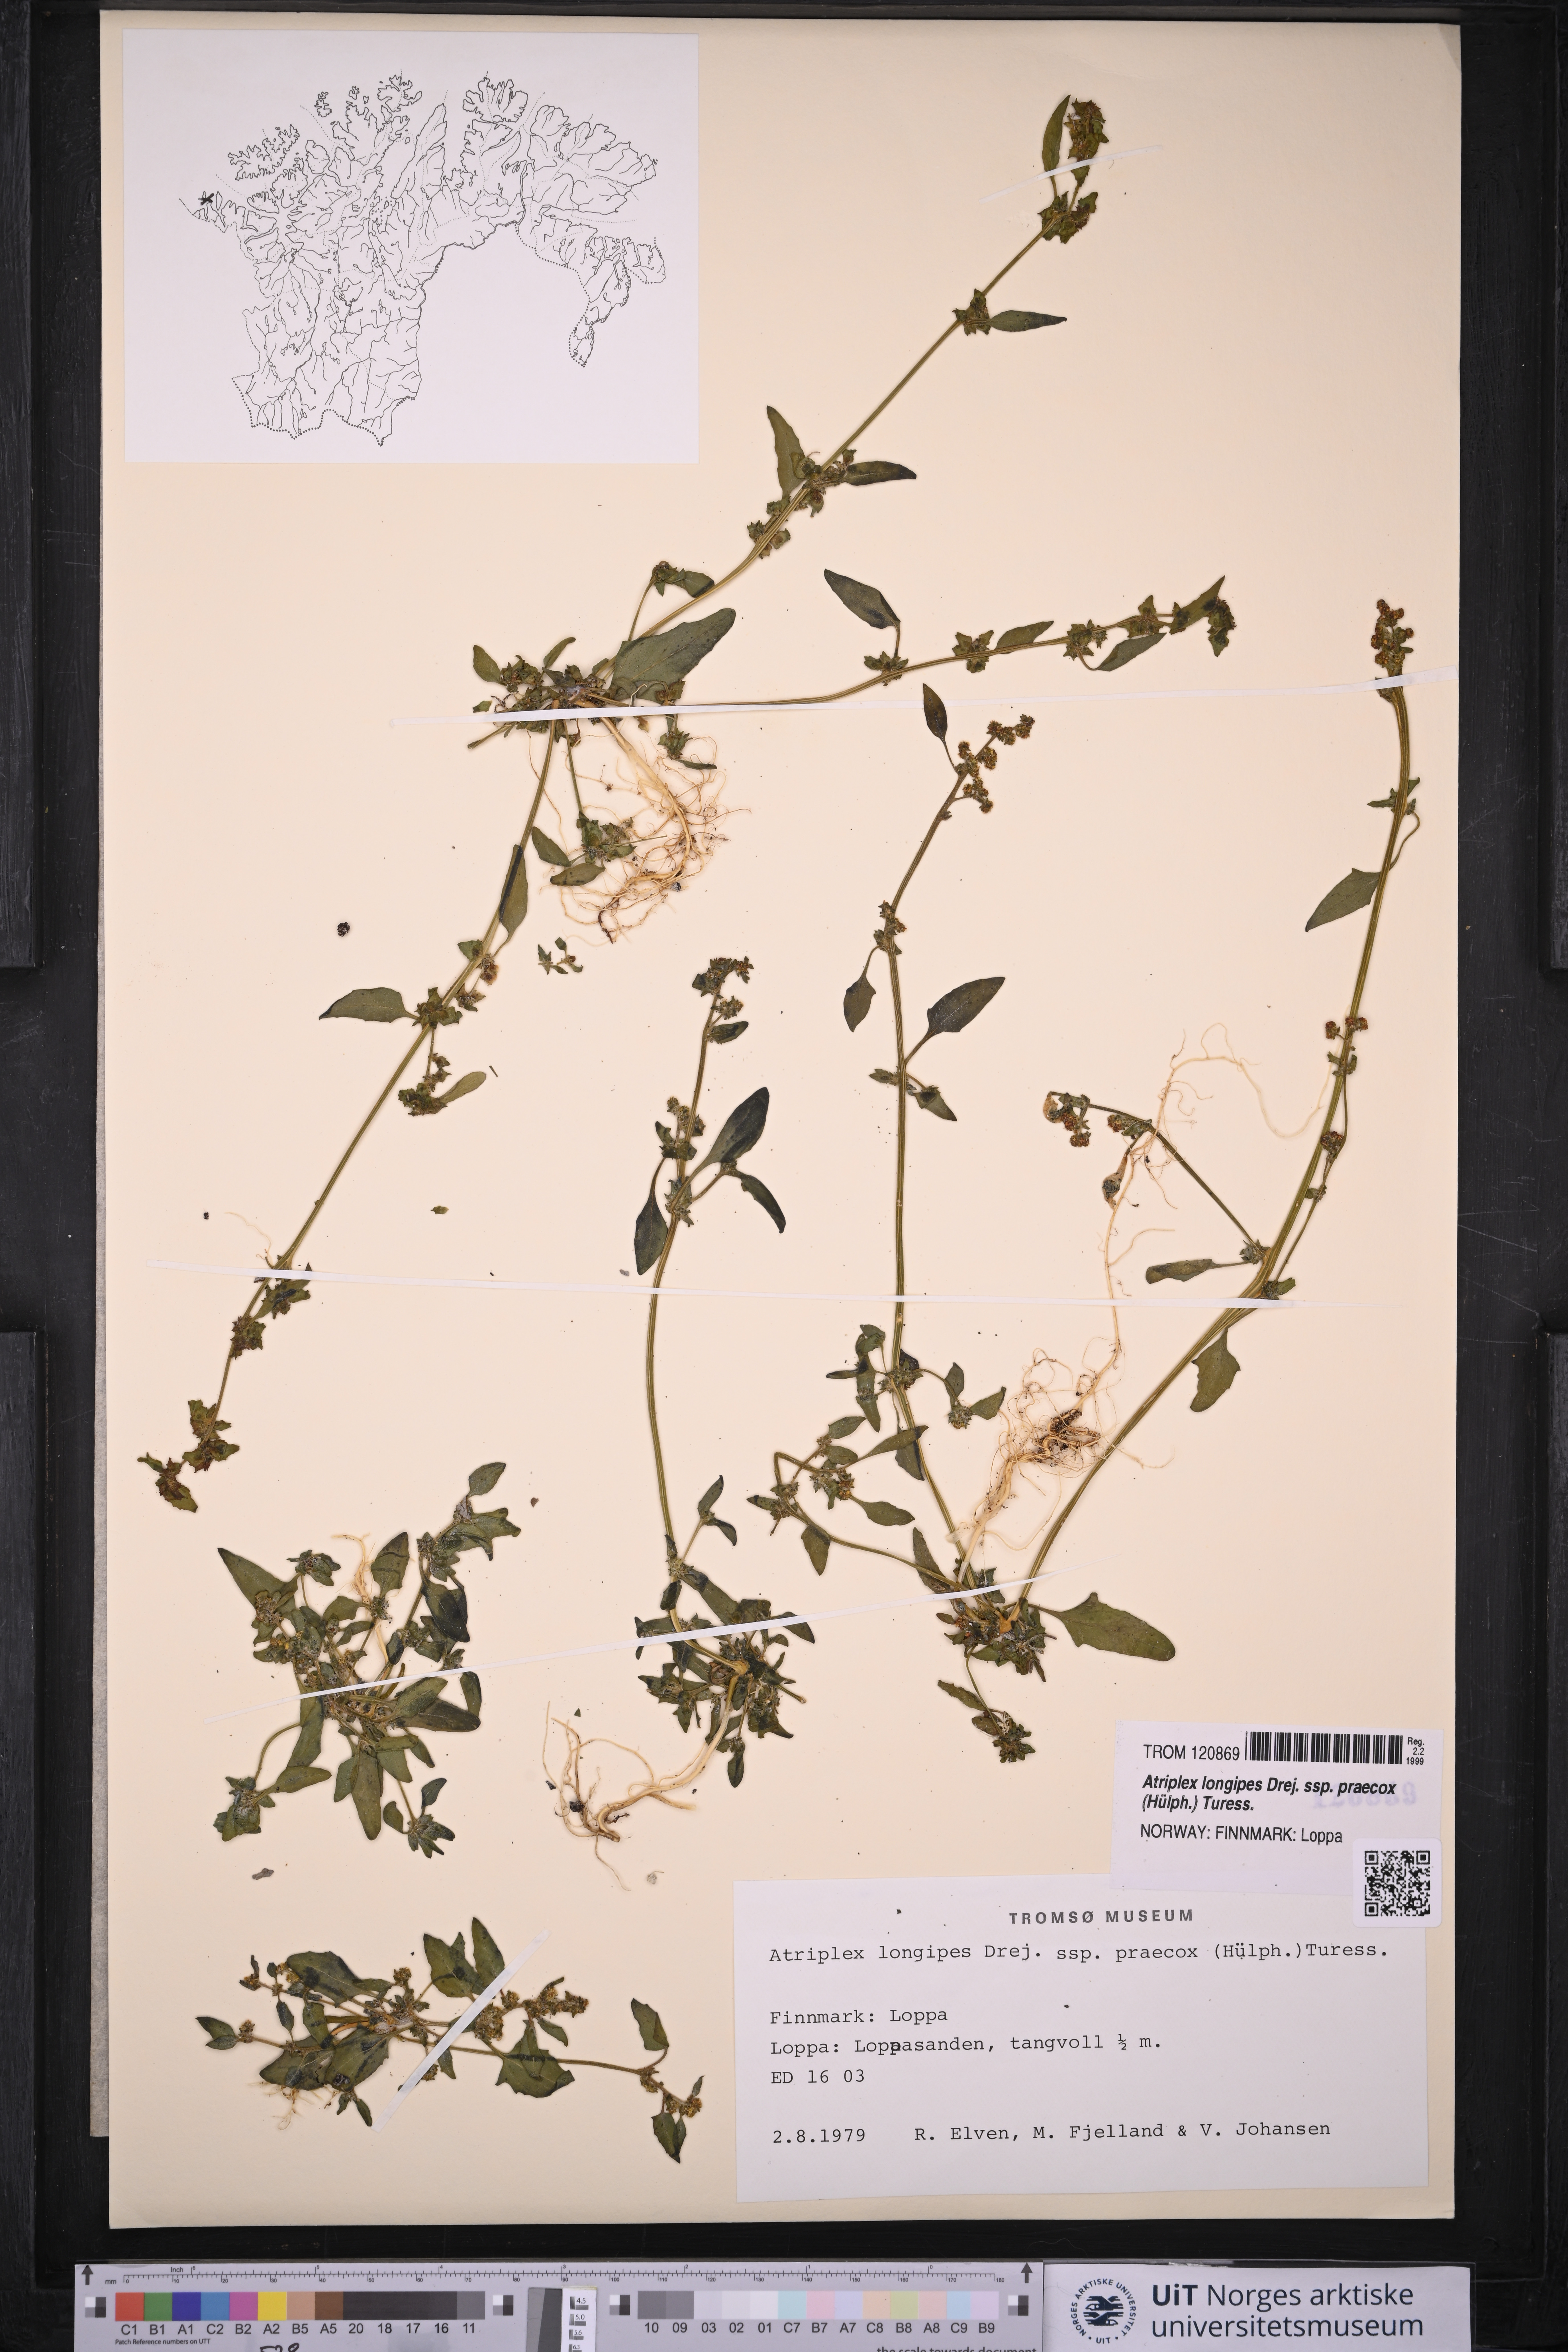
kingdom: Plantae
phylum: Tracheophyta
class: Magnoliopsida
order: Caryophyllales
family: Amaranthaceae
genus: Atriplex
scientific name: Atriplex praecox
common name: Early orache
